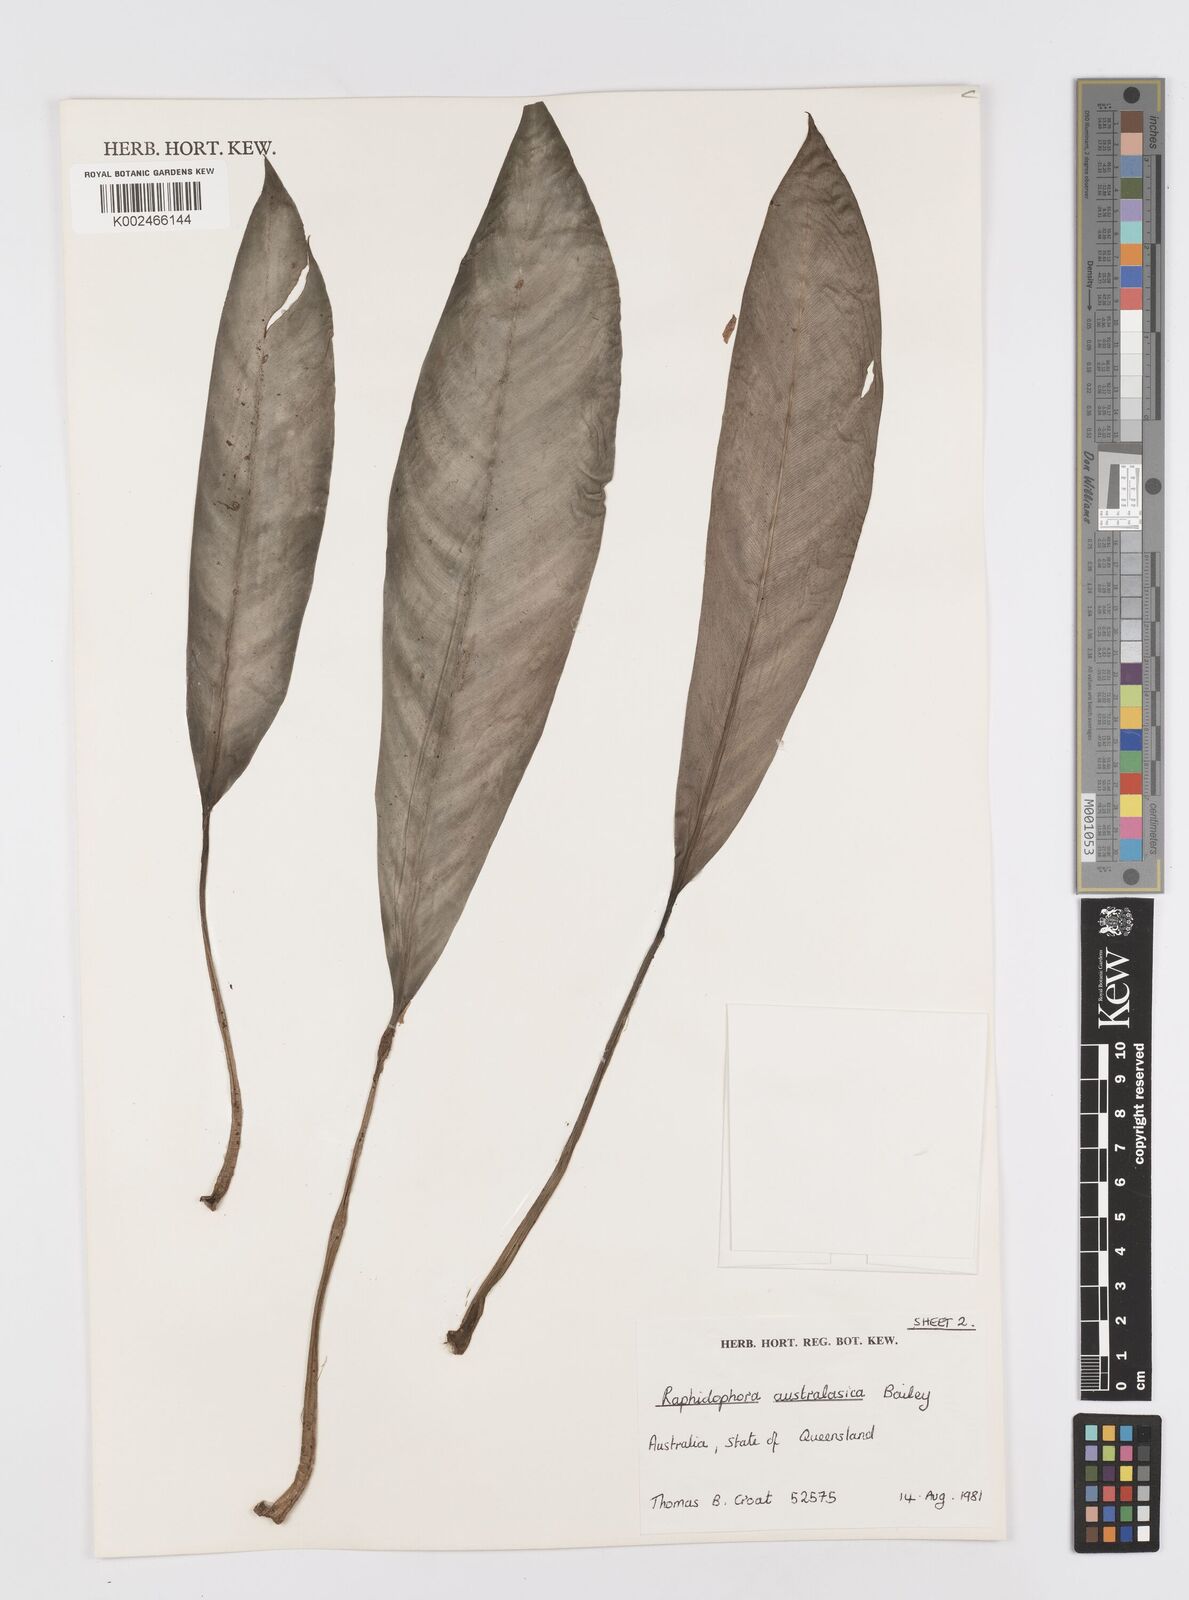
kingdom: Plantae
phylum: Tracheophyta
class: Liliopsida
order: Alismatales
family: Araceae
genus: Rhaphidophora
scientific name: Rhaphidophora australasica
